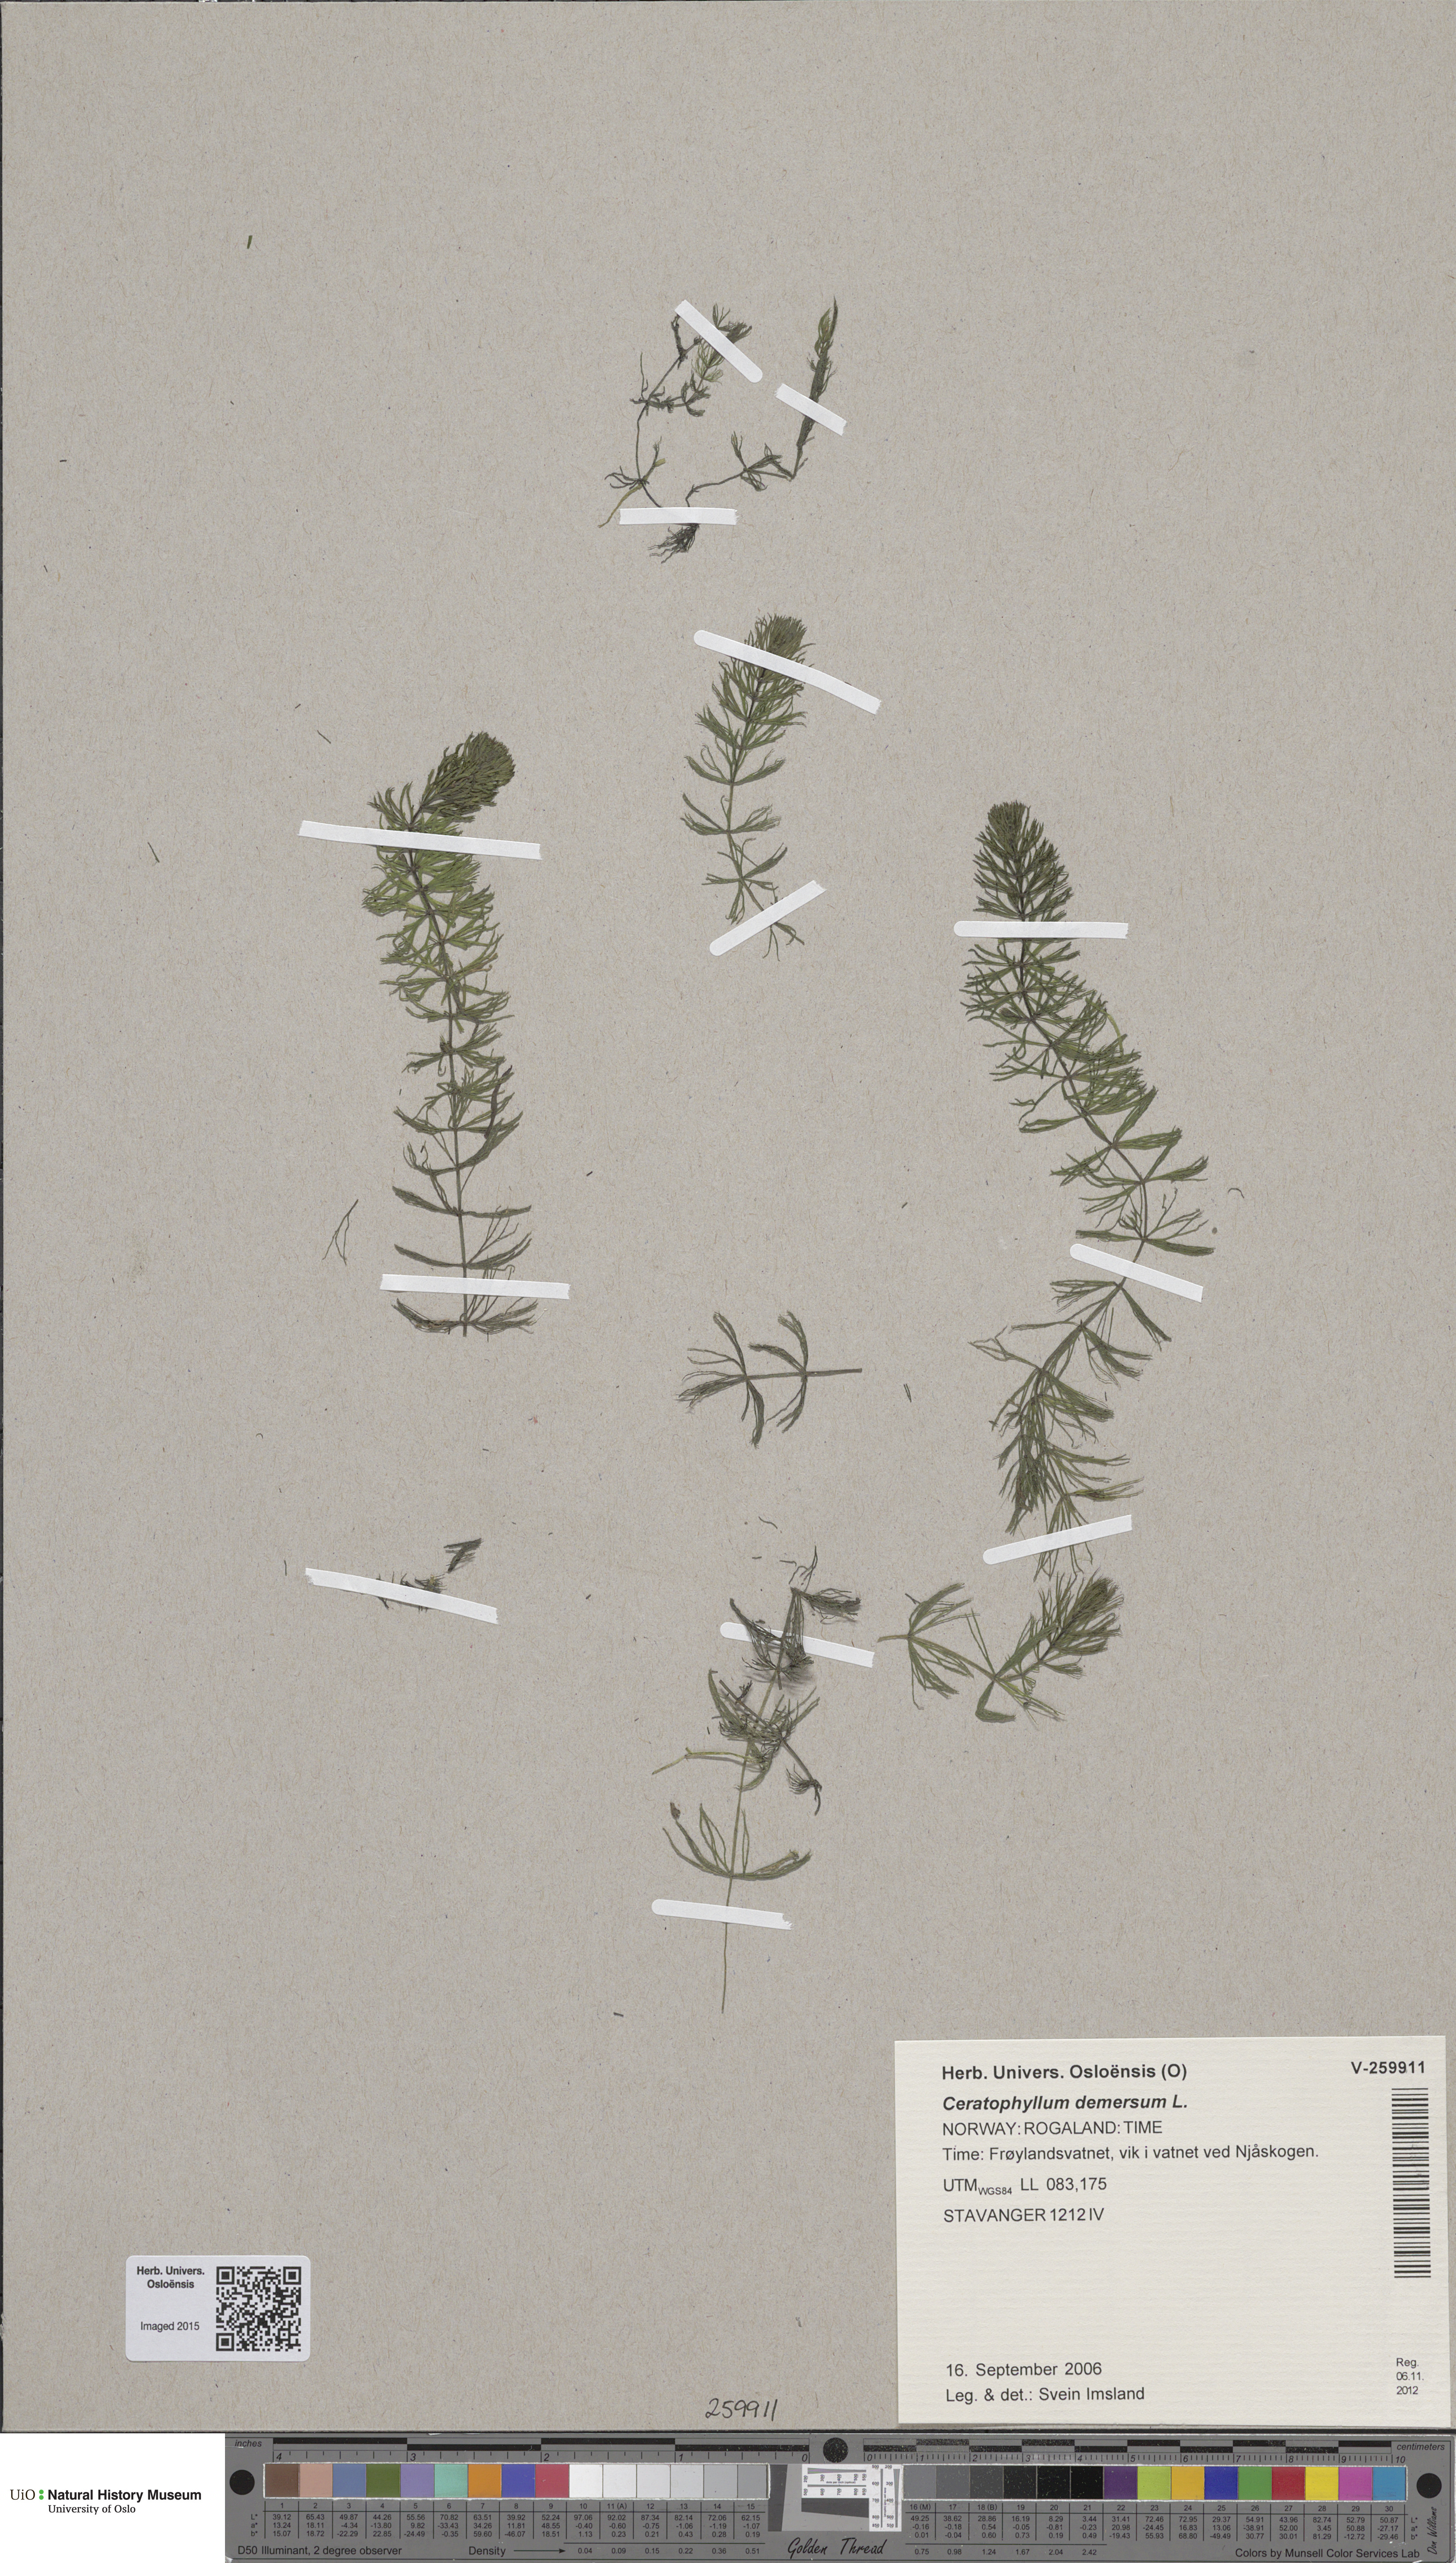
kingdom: Plantae
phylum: Tracheophyta
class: Magnoliopsida
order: Ceratophyllales
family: Ceratophyllaceae
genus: Ceratophyllum
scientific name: Ceratophyllum demersum
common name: Rigid hornwort
